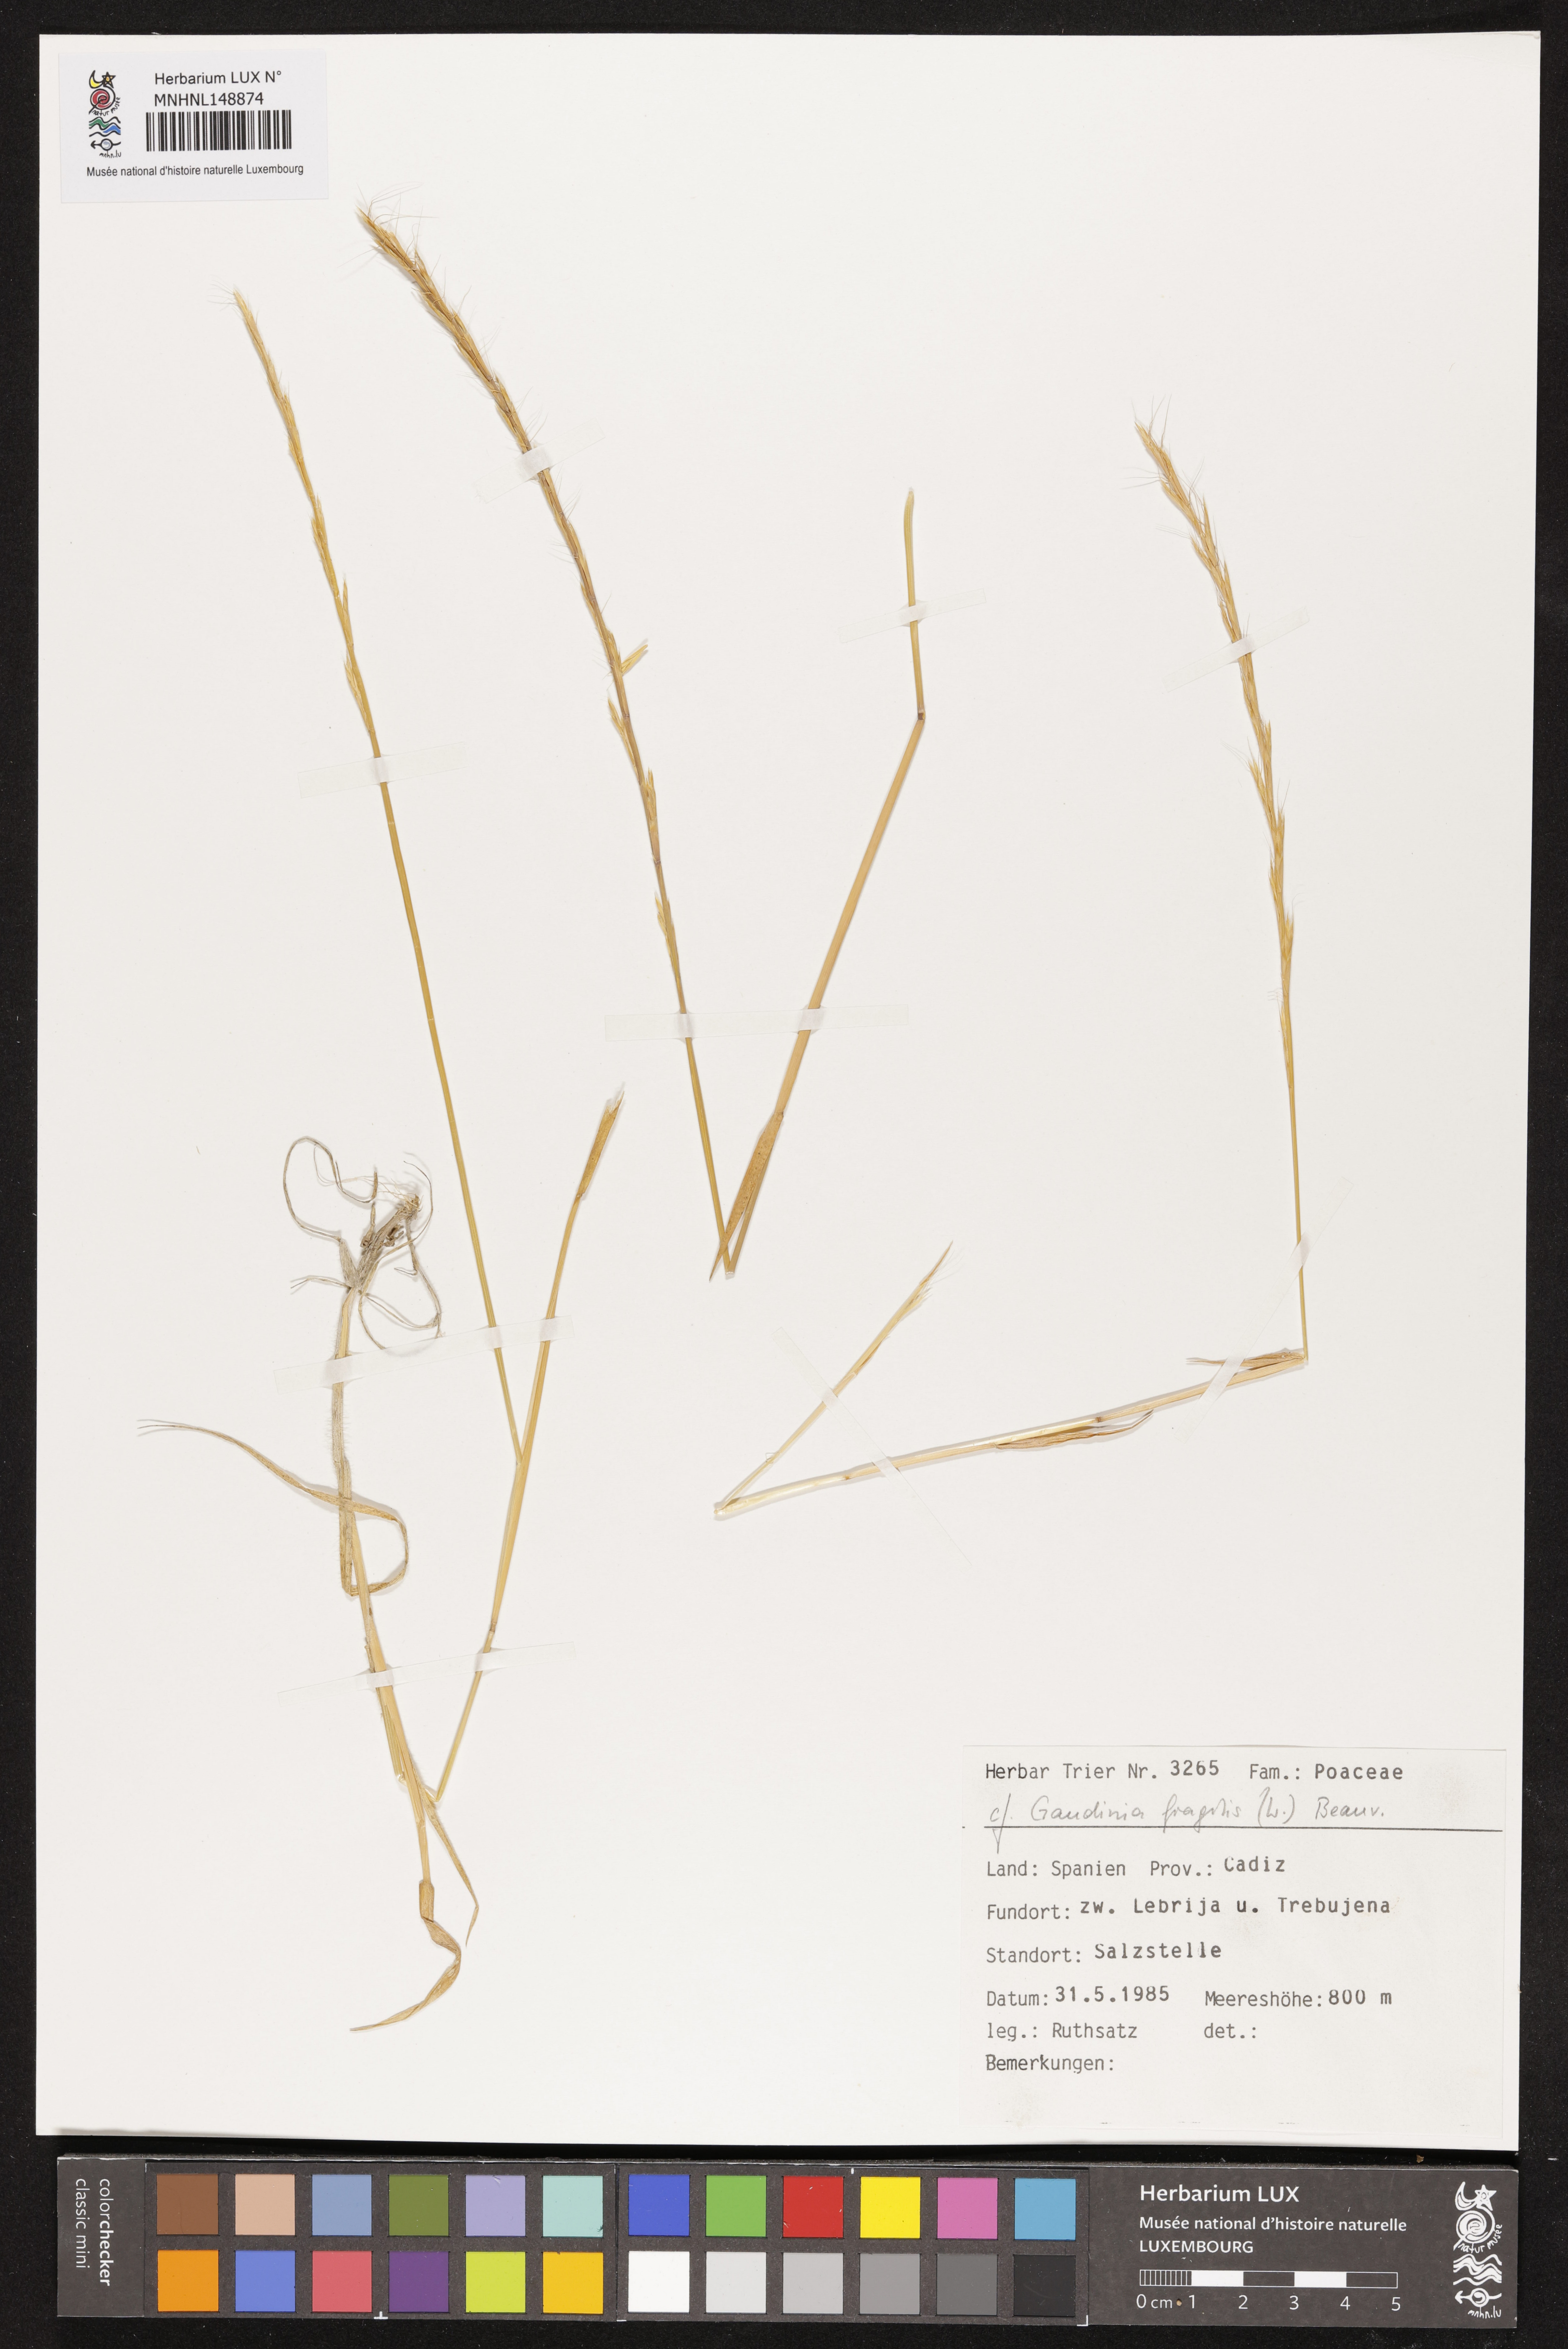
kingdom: Plantae
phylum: Tracheophyta
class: Liliopsida
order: Poales
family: Poaceae
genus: Gaudinia
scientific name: Gaudinia fragilis
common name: French oat-grass
